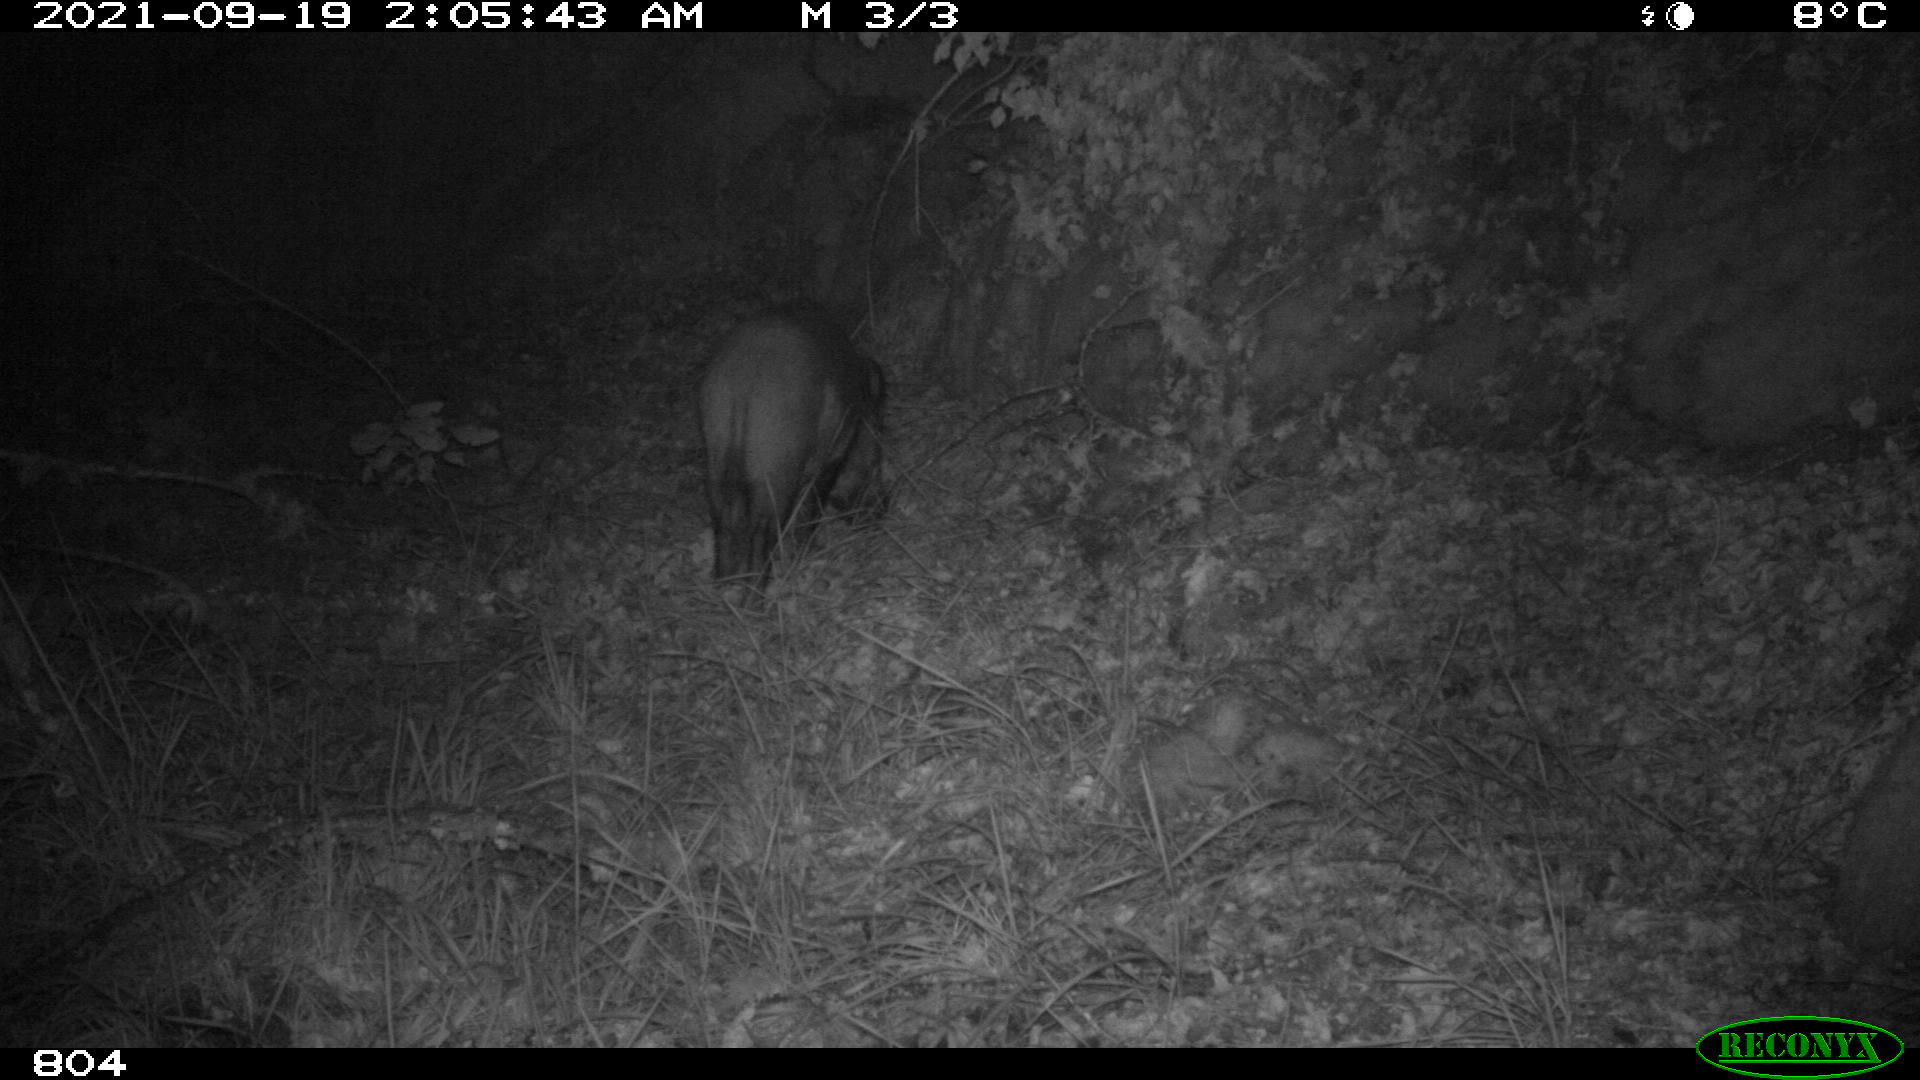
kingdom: Animalia
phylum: Chordata
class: Mammalia
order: Artiodactyla
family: Suidae
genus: Sus
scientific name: Sus scrofa
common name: Wild boar
